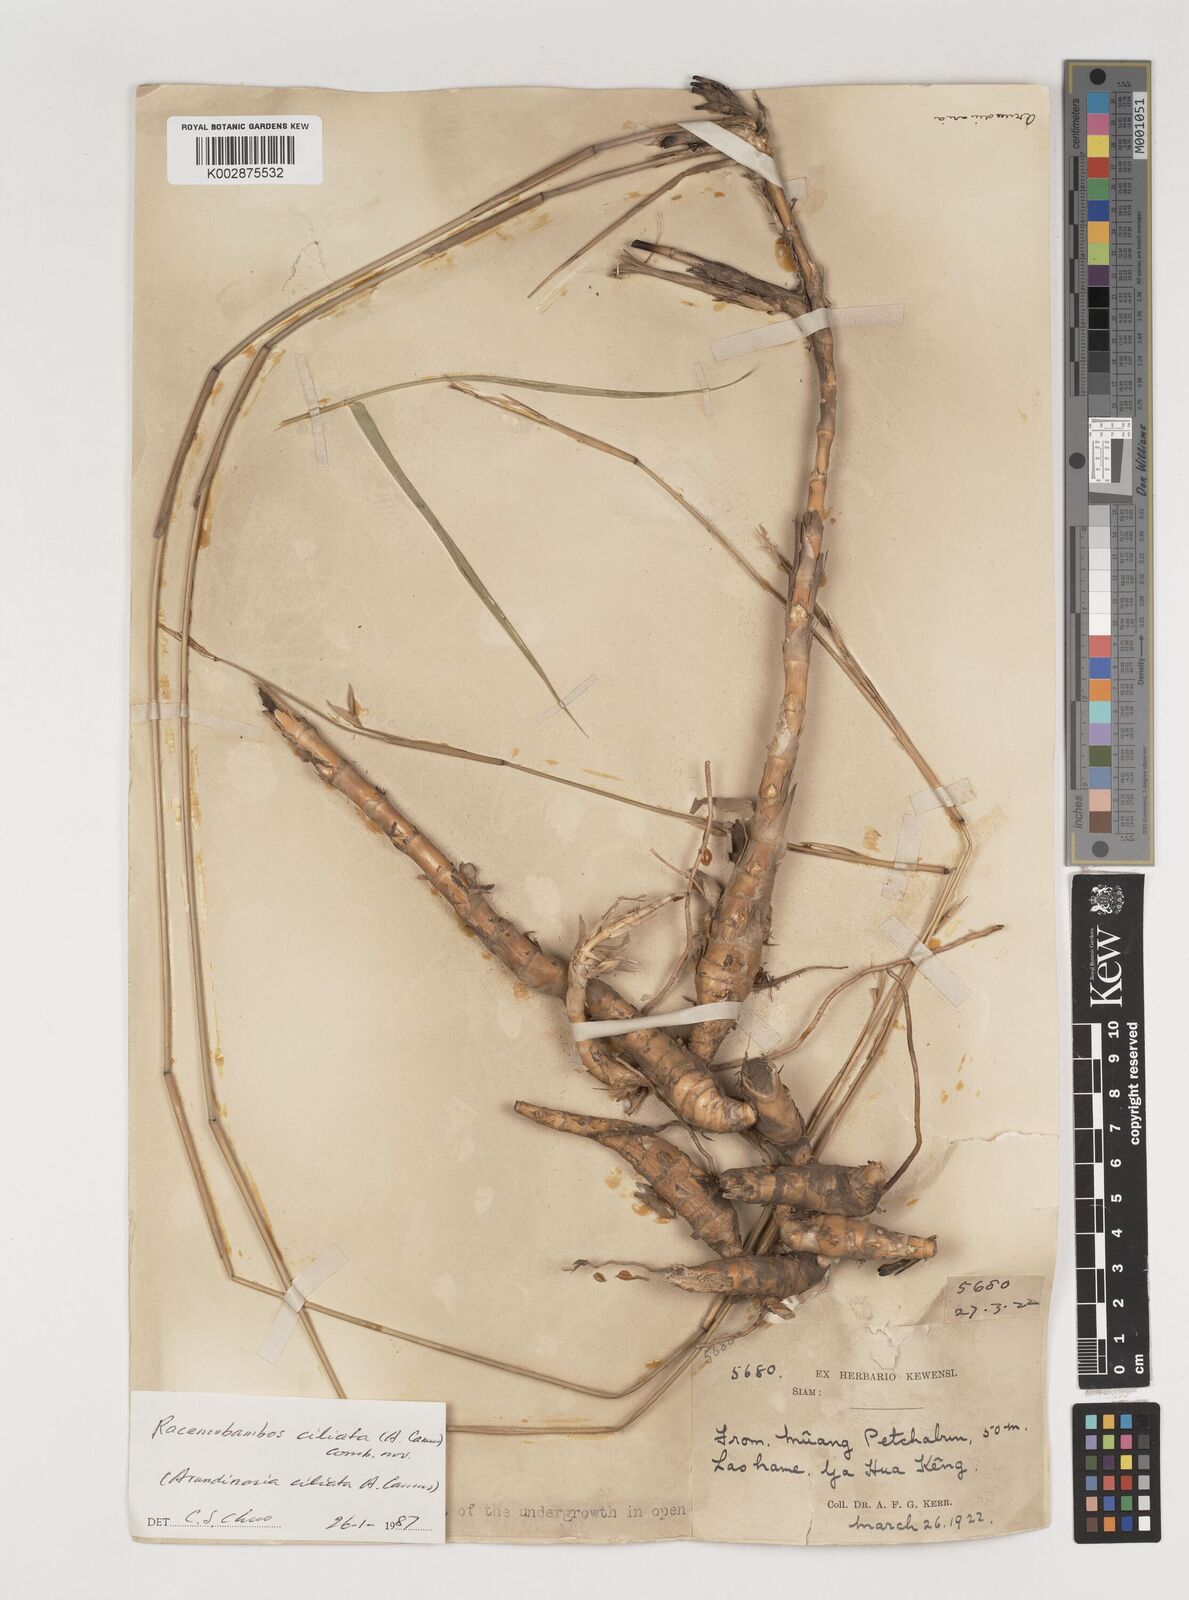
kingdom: Plantae
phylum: Tracheophyta
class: Liliopsida
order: Poales
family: Poaceae
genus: Vietnamosasa
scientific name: Vietnamosasa ciliata
